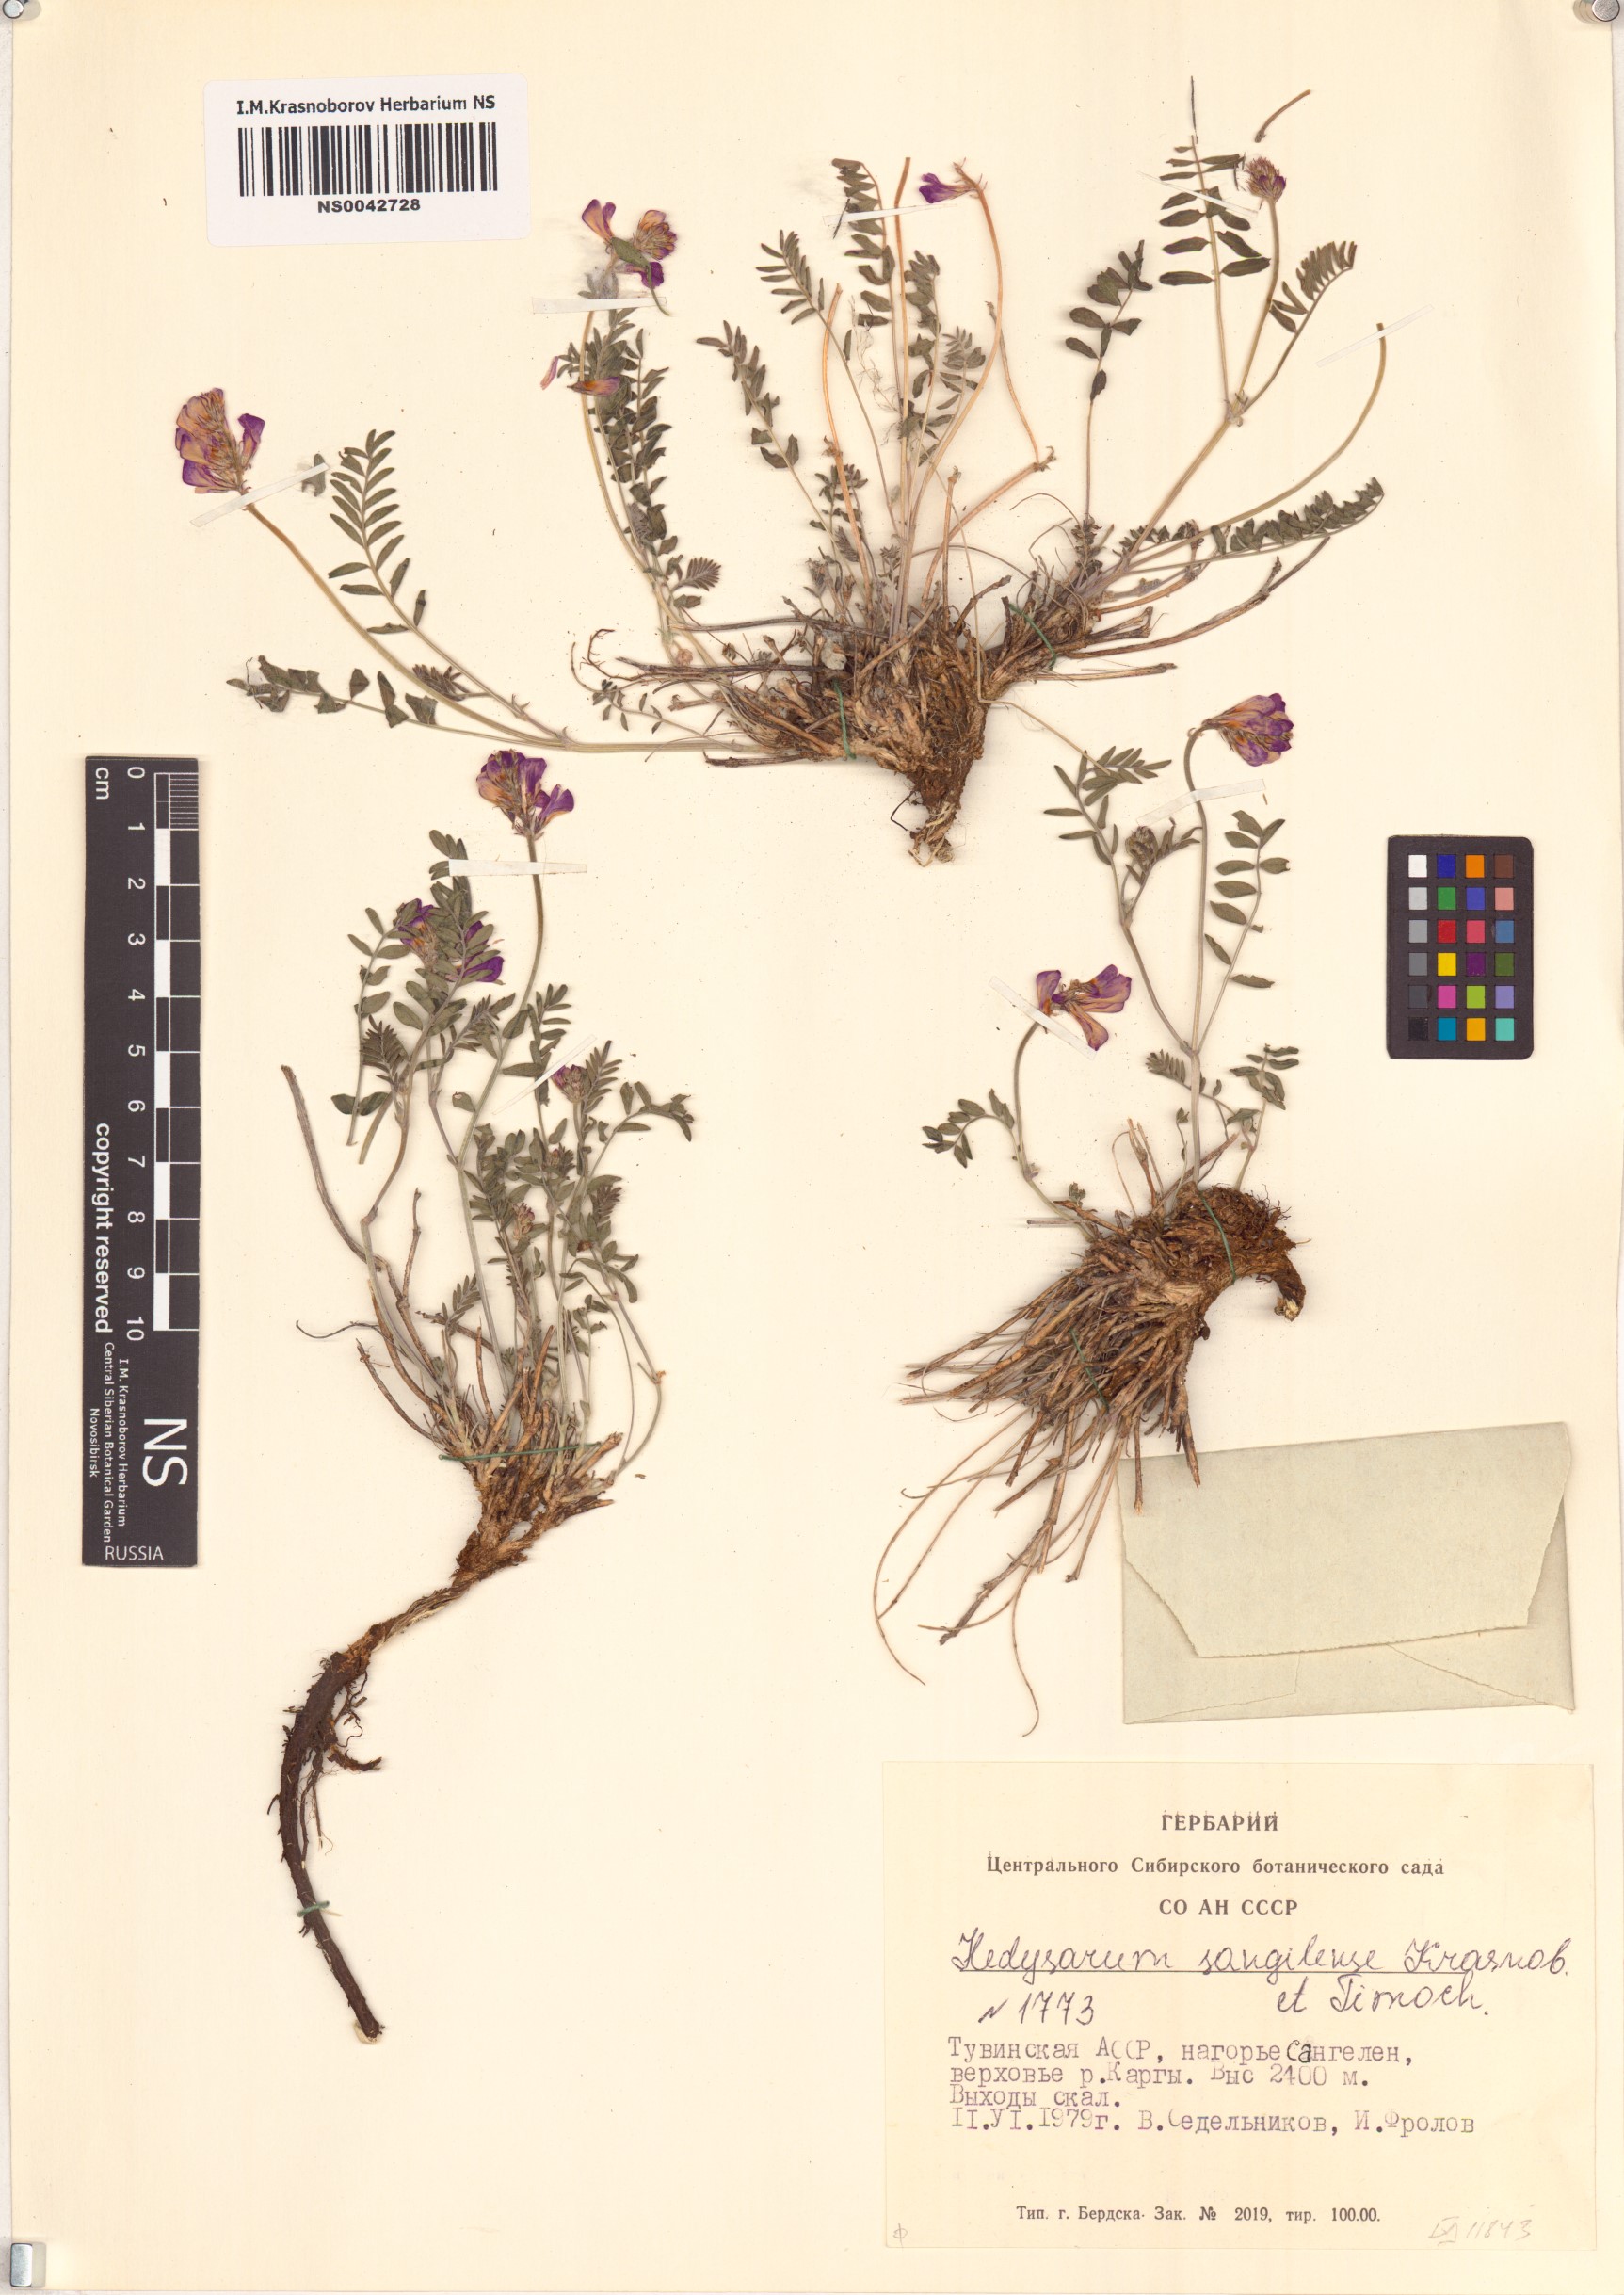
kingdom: Plantae
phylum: Tracheophyta
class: Magnoliopsida
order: Fabales
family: Fabaceae
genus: Hedysarum
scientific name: Hedysarum sangilense
